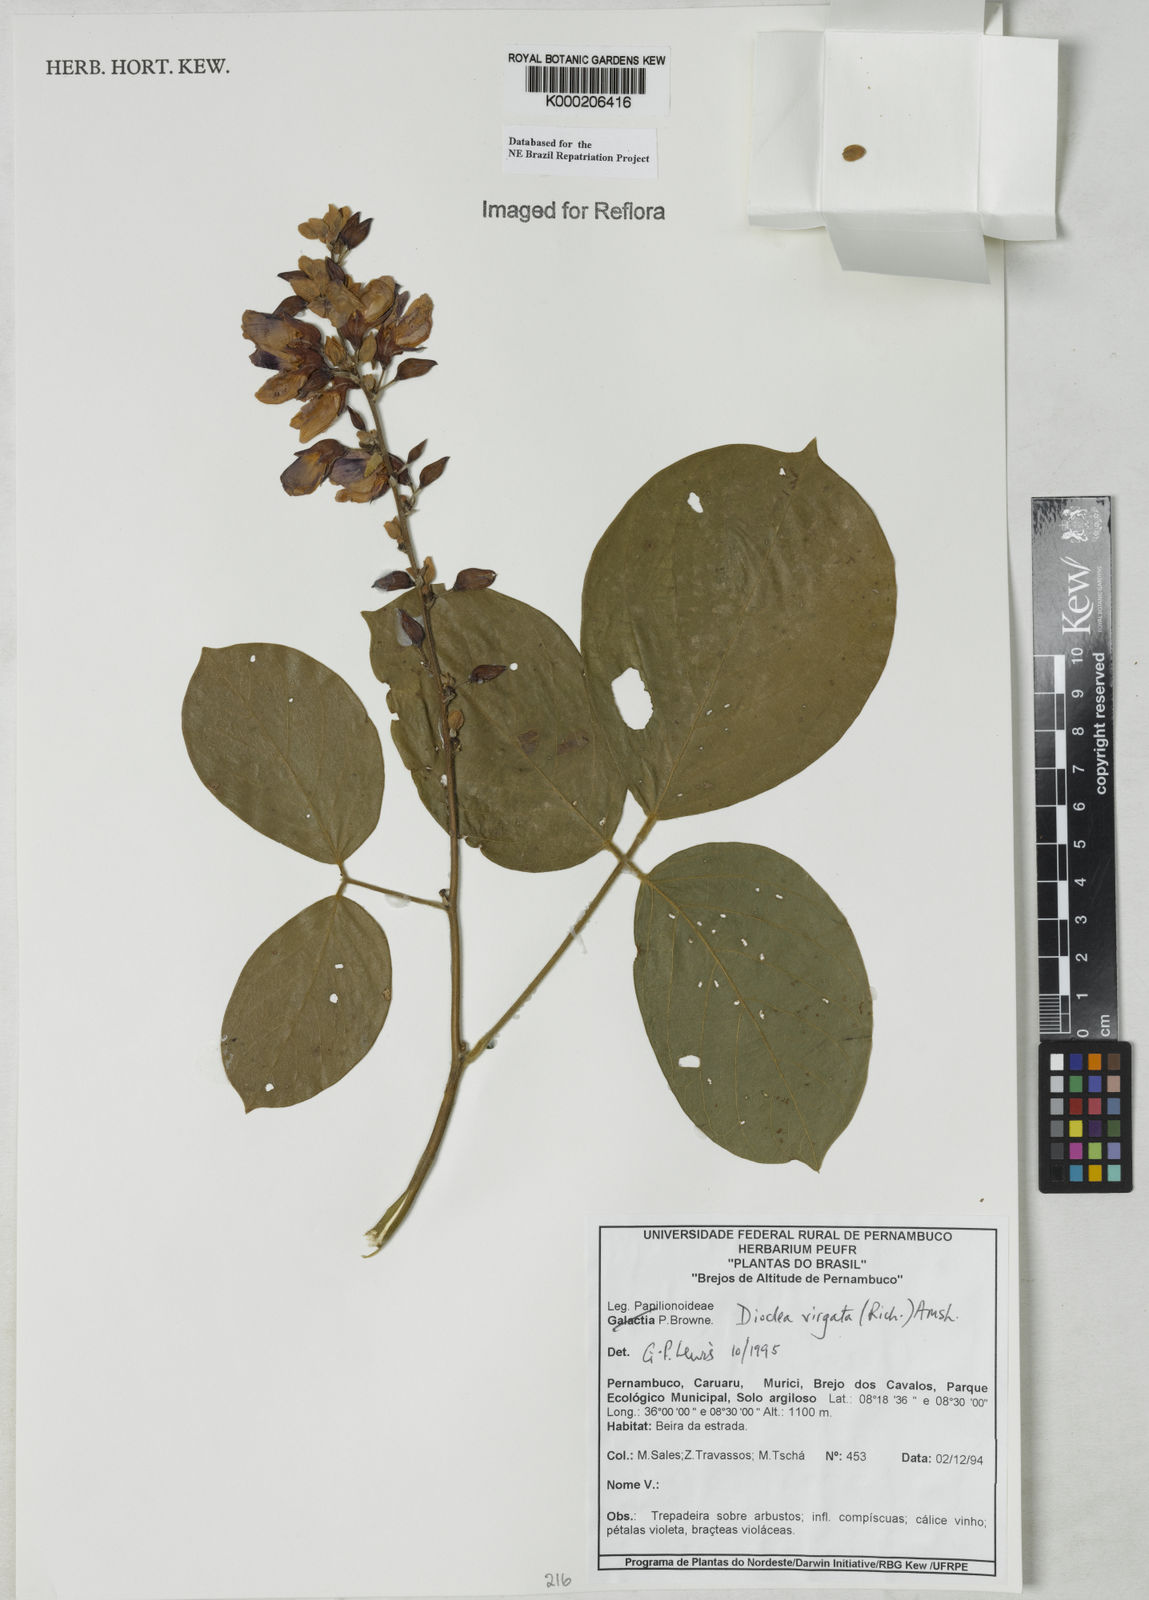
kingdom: Plantae
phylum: Tracheophyta
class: Magnoliopsida
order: Fabales
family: Fabaceae
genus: Dioclea
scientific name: Dioclea virgata
